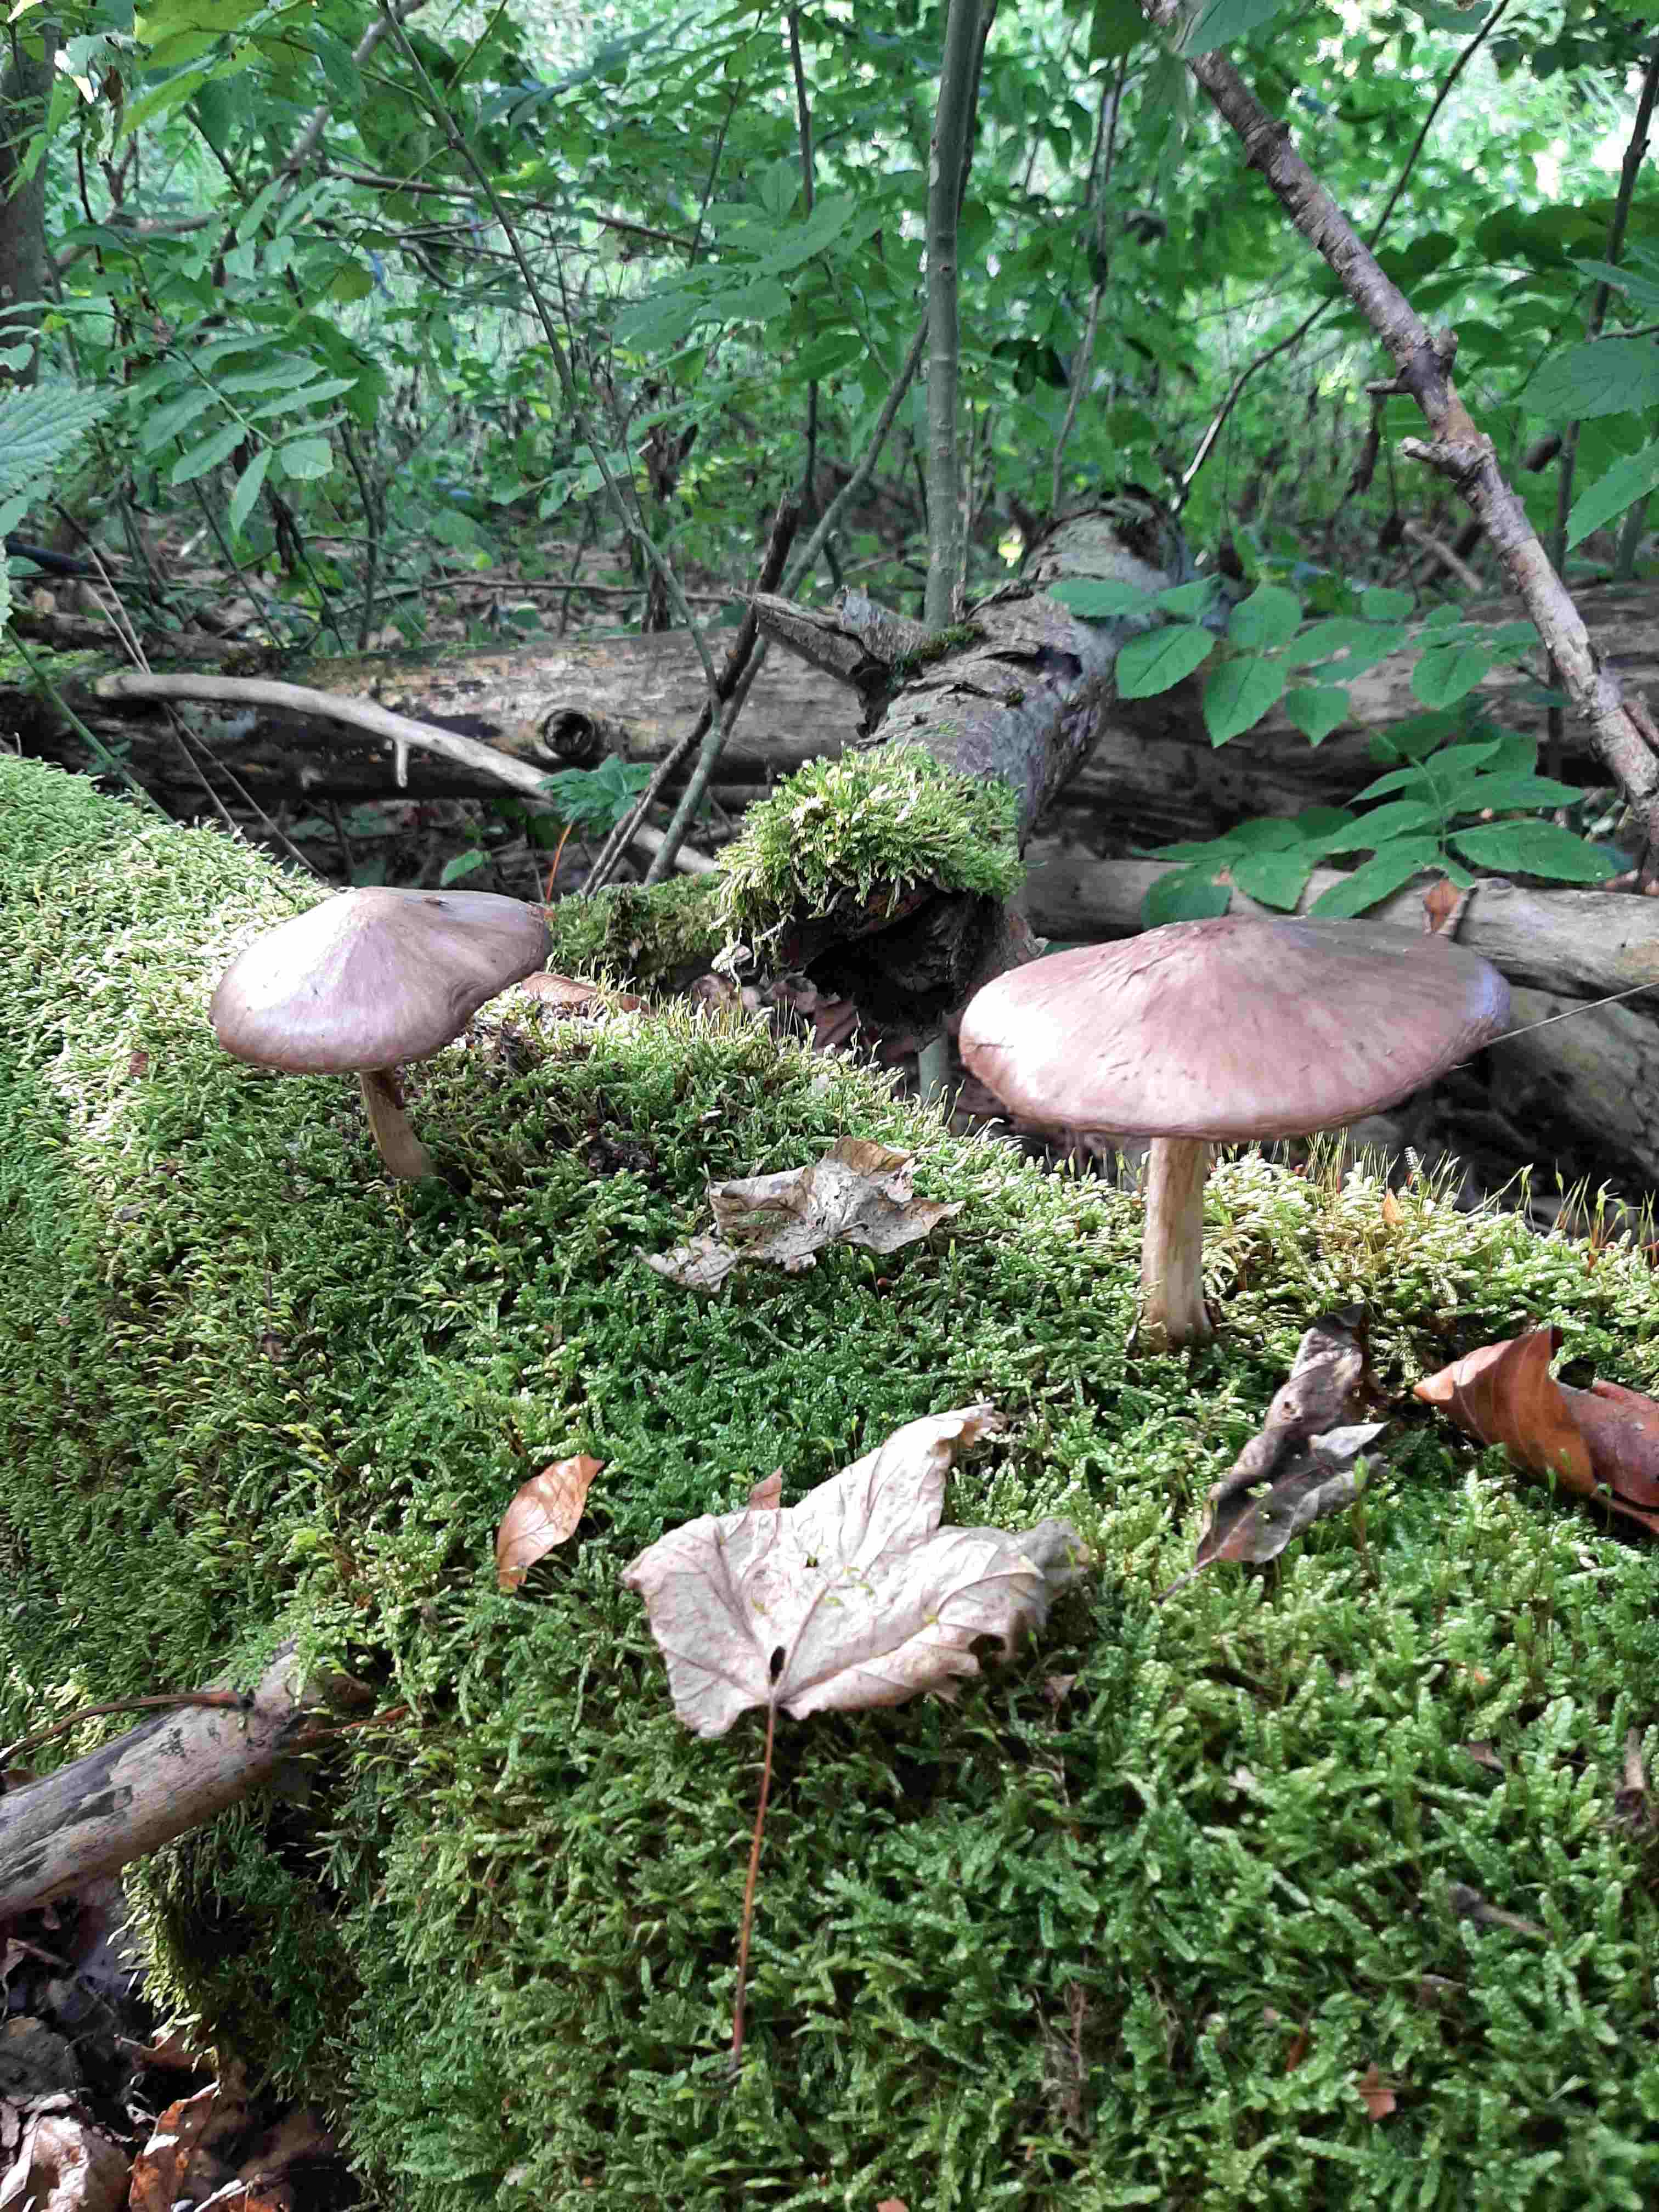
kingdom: Fungi
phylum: Basidiomycota
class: Agaricomycetes
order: Agaricales
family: Pluteaceae
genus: Pluteus
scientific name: Pluteus cervinus
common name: sodfarvet skærmhat
